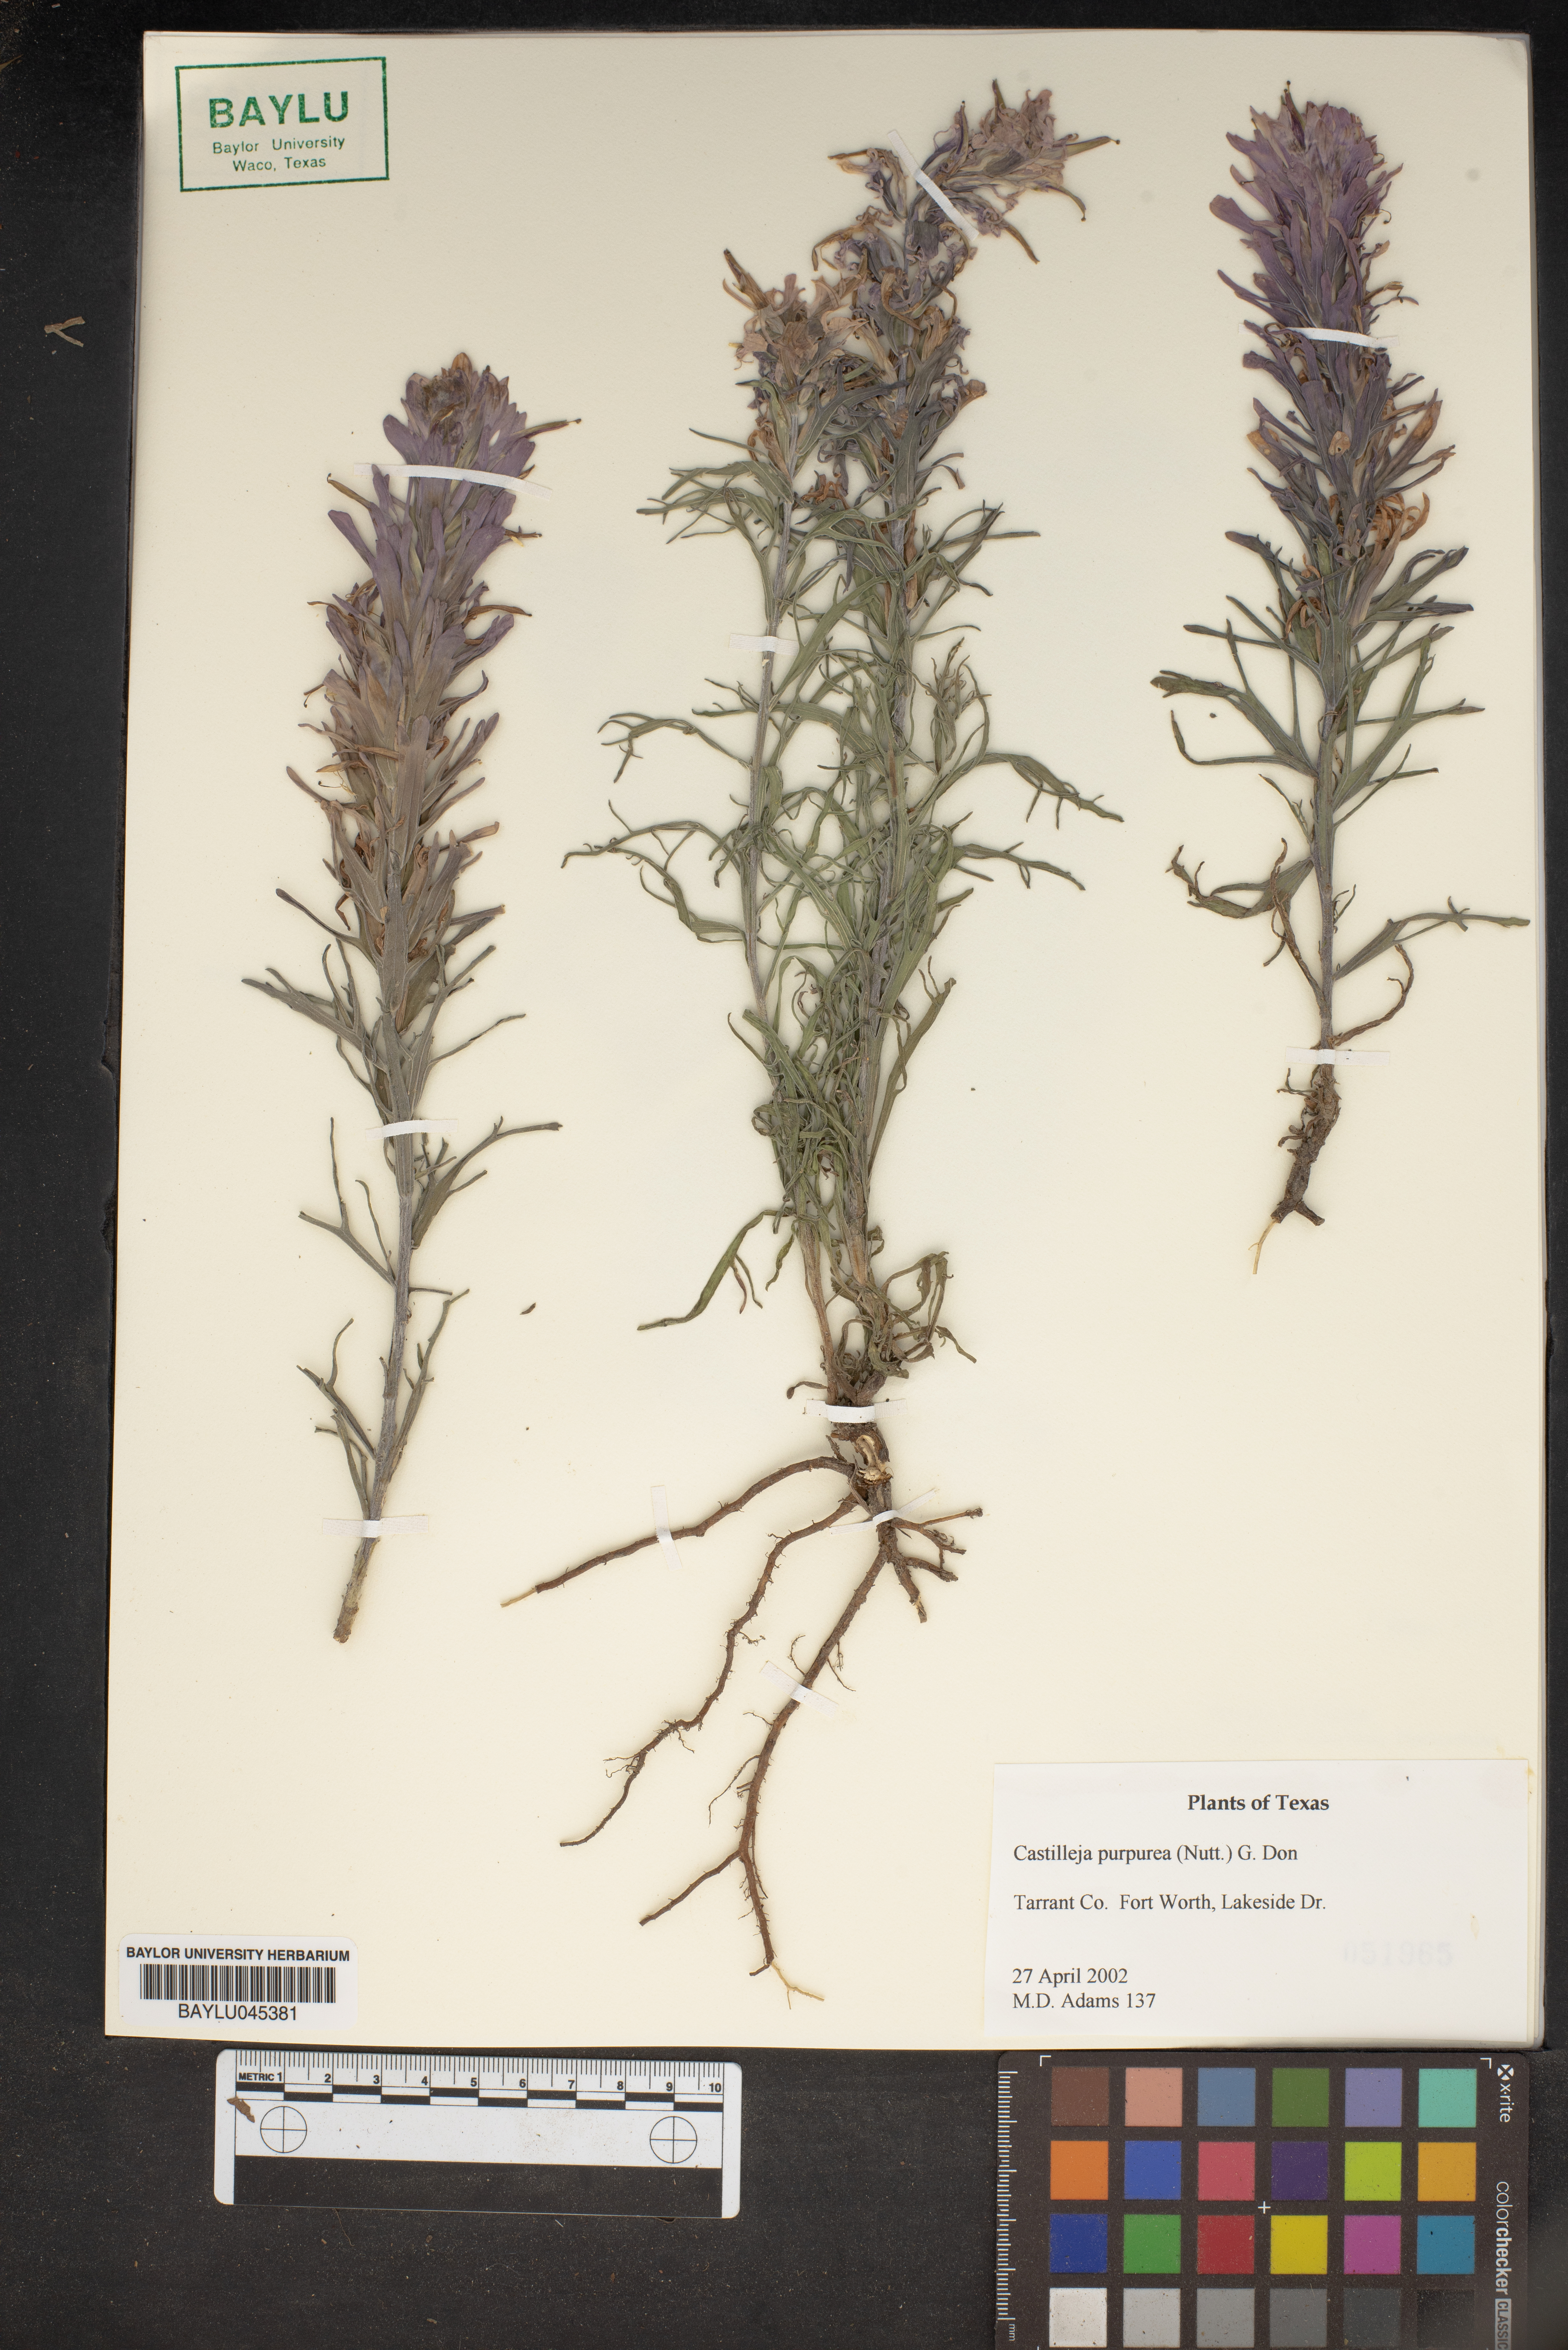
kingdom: Plantae
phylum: Tracheophyta
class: Magnoliopsida
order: Lamiales
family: Orobanchaceae
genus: Castilleja
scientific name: Castilleja purpurea
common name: Plains paintbrush
